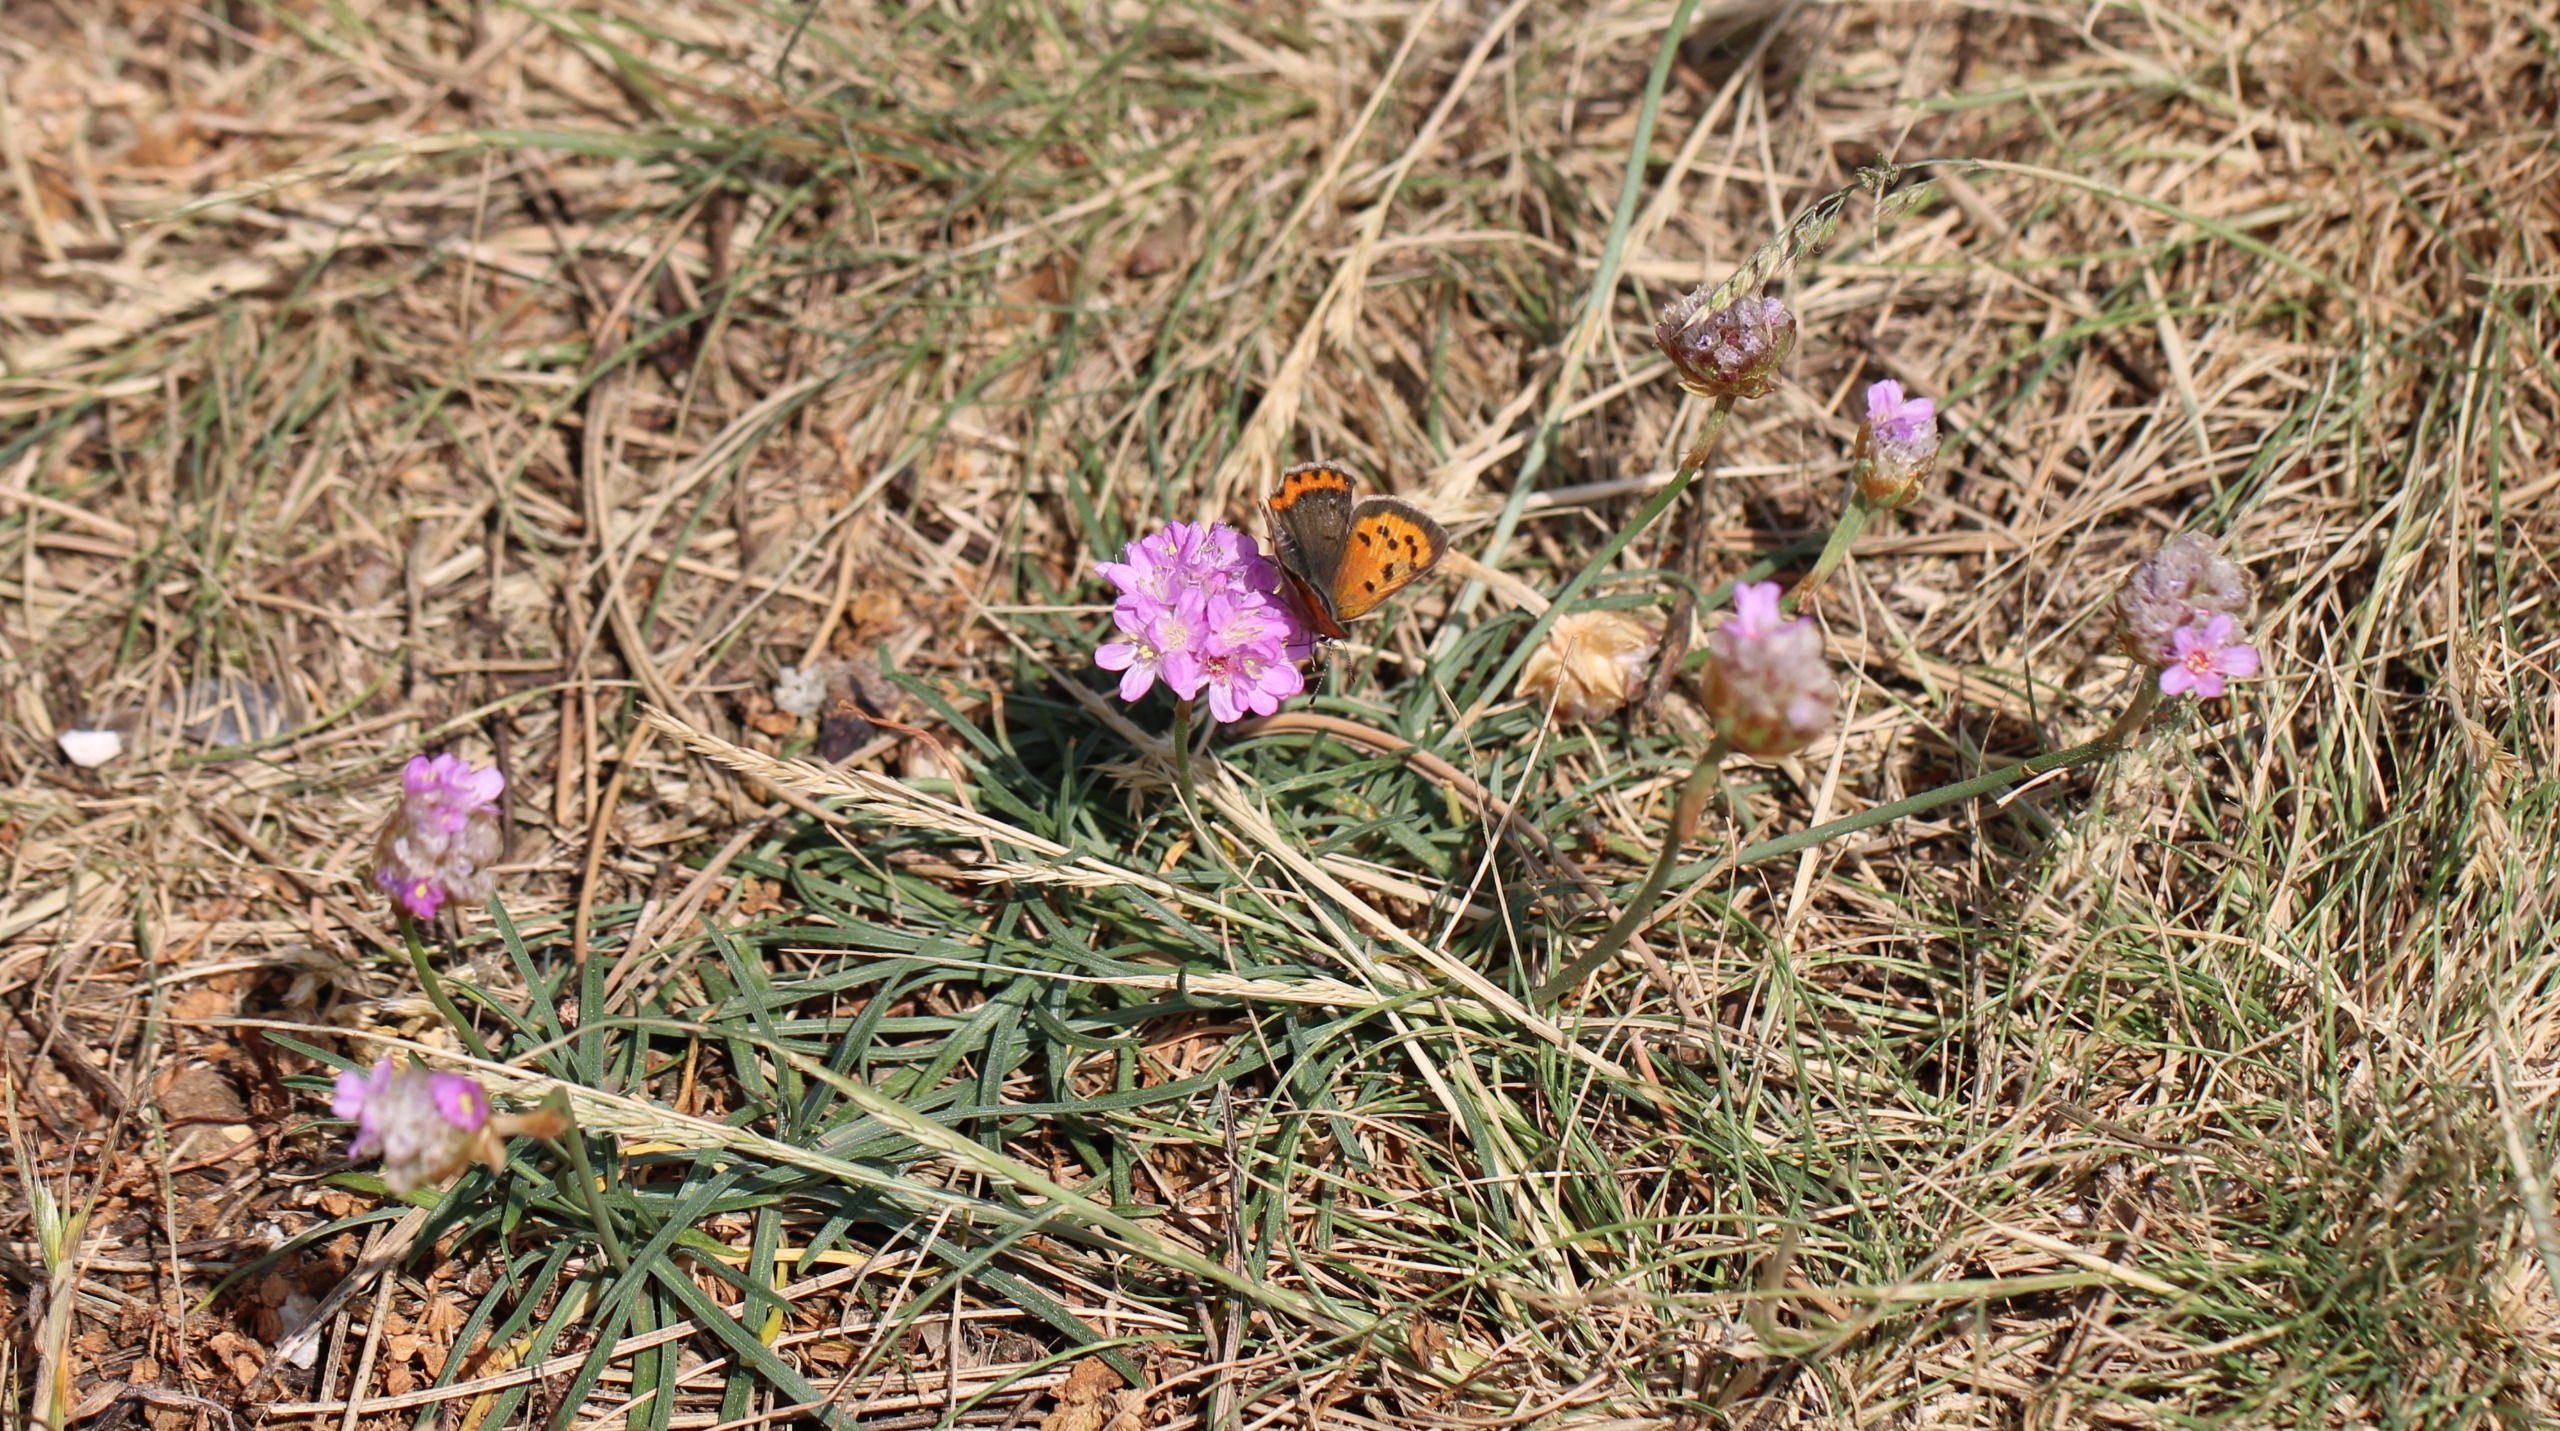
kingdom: Animalia
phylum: Arthropoda
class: Insecta
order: Lepidoptera
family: Lycaenidae
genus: Lycaena
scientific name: Lycaena phlaeas
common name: Lille ildfugl
